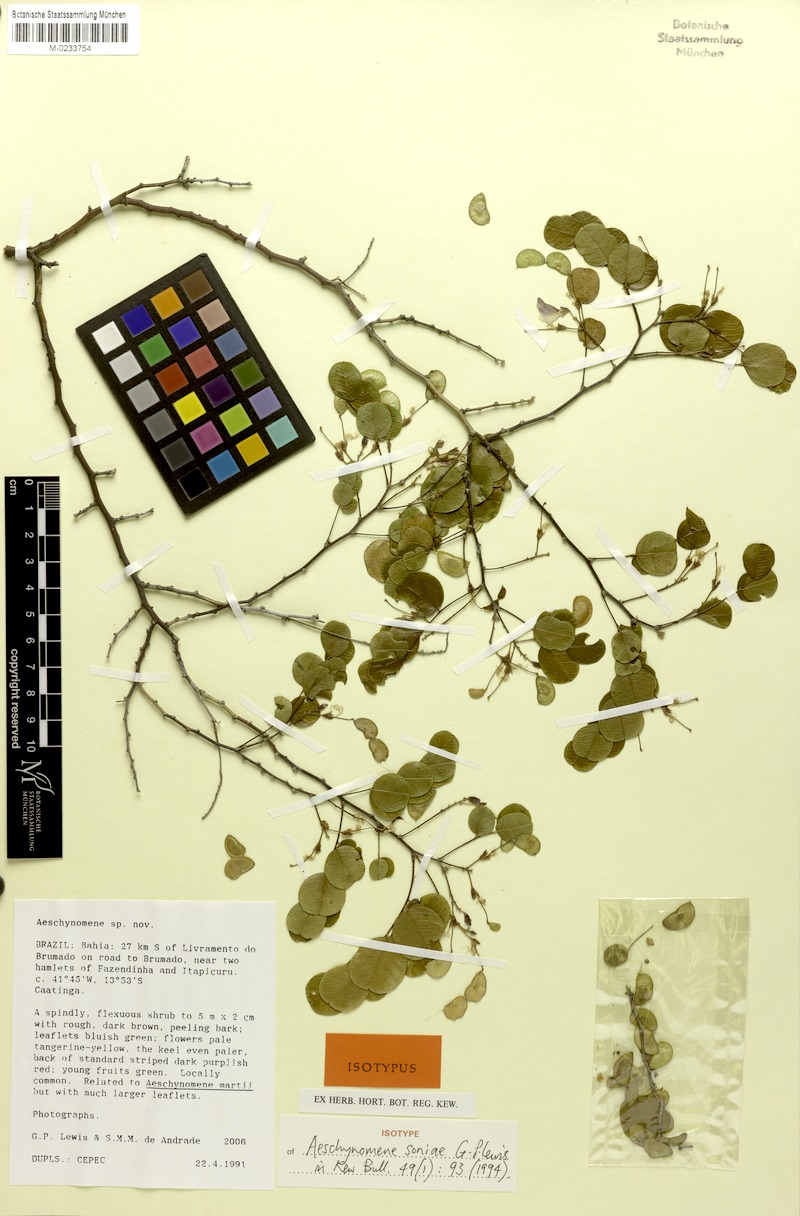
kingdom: Plantae
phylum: Tracheophyta
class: Magnoliopsida
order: Fabales
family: Fabaceae
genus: Ctenodon
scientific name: Ctenodon soniae
